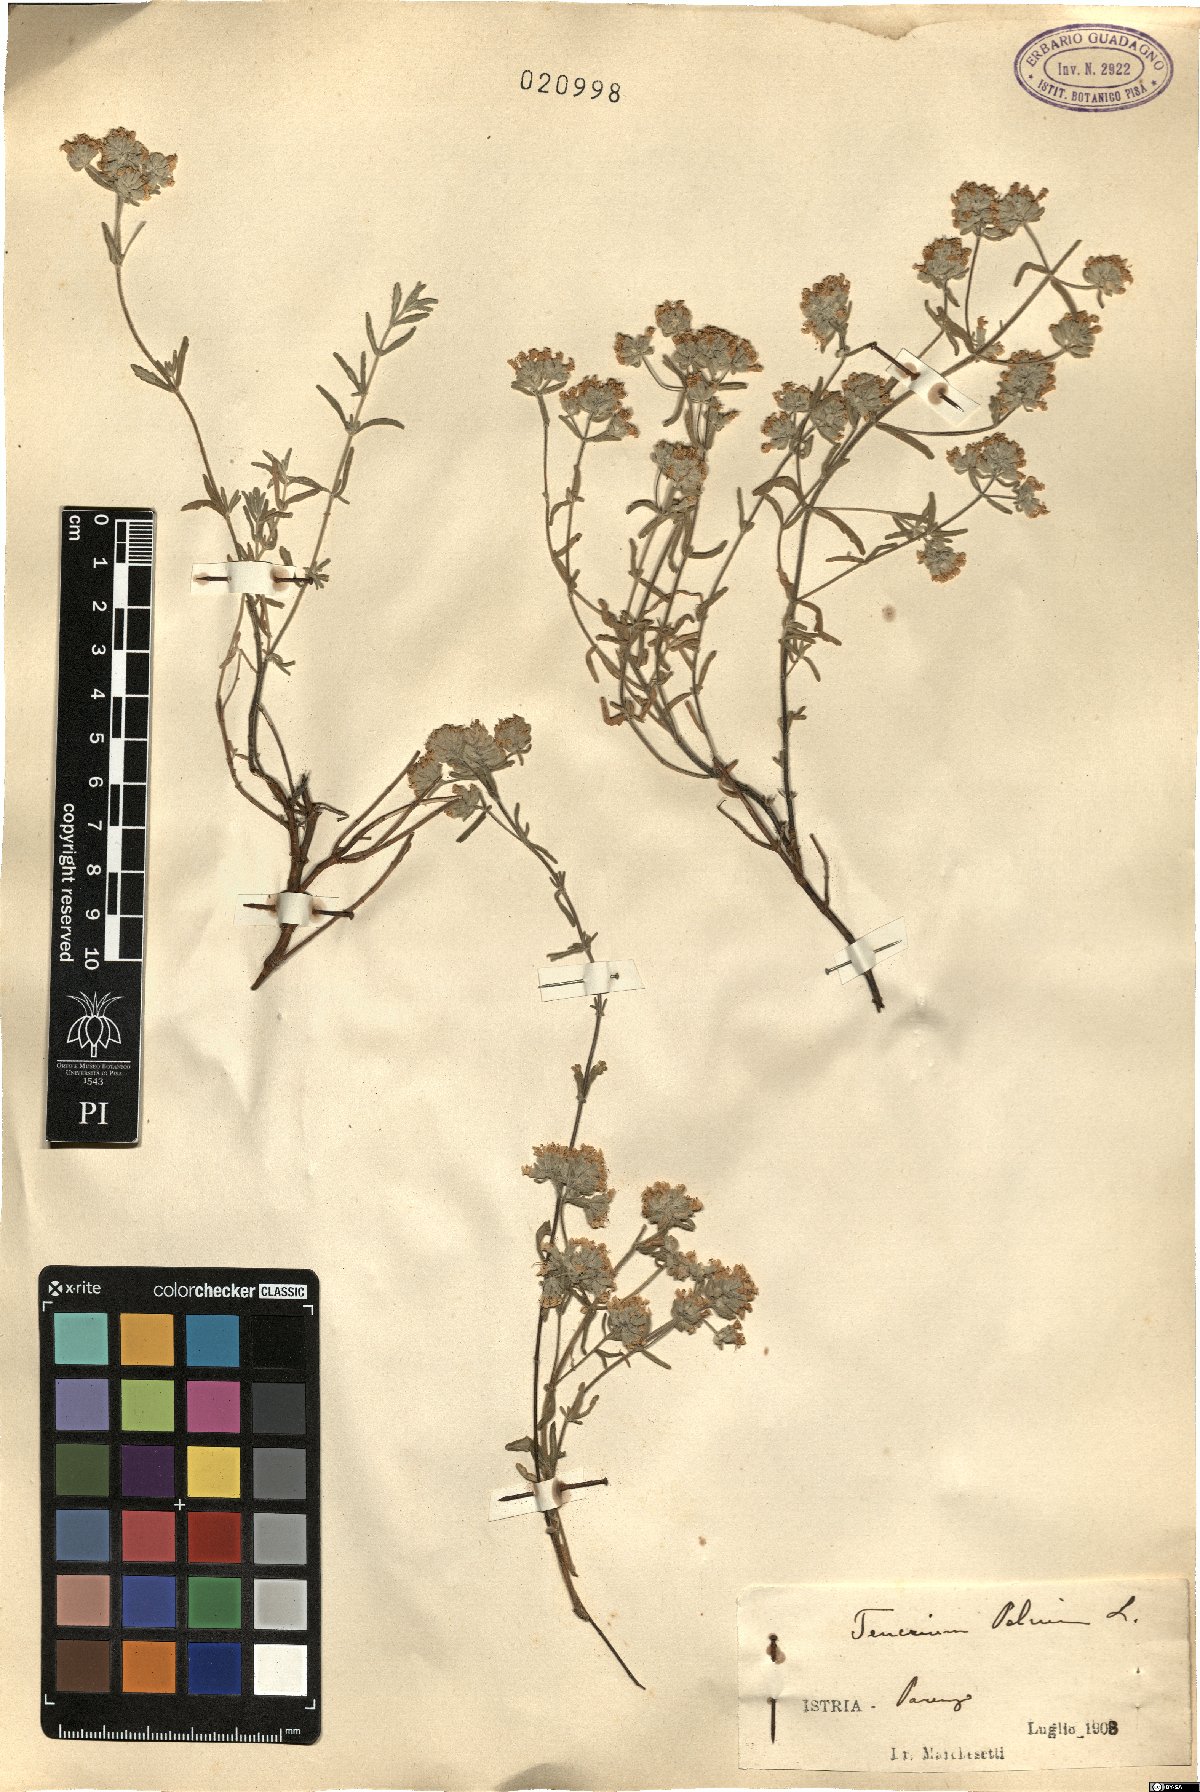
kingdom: Plantae
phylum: Tracheophyta
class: Magnoliopsida
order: Lamiales
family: Lamiaceae
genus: Teucrium
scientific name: Teucrium polium
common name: Poley
